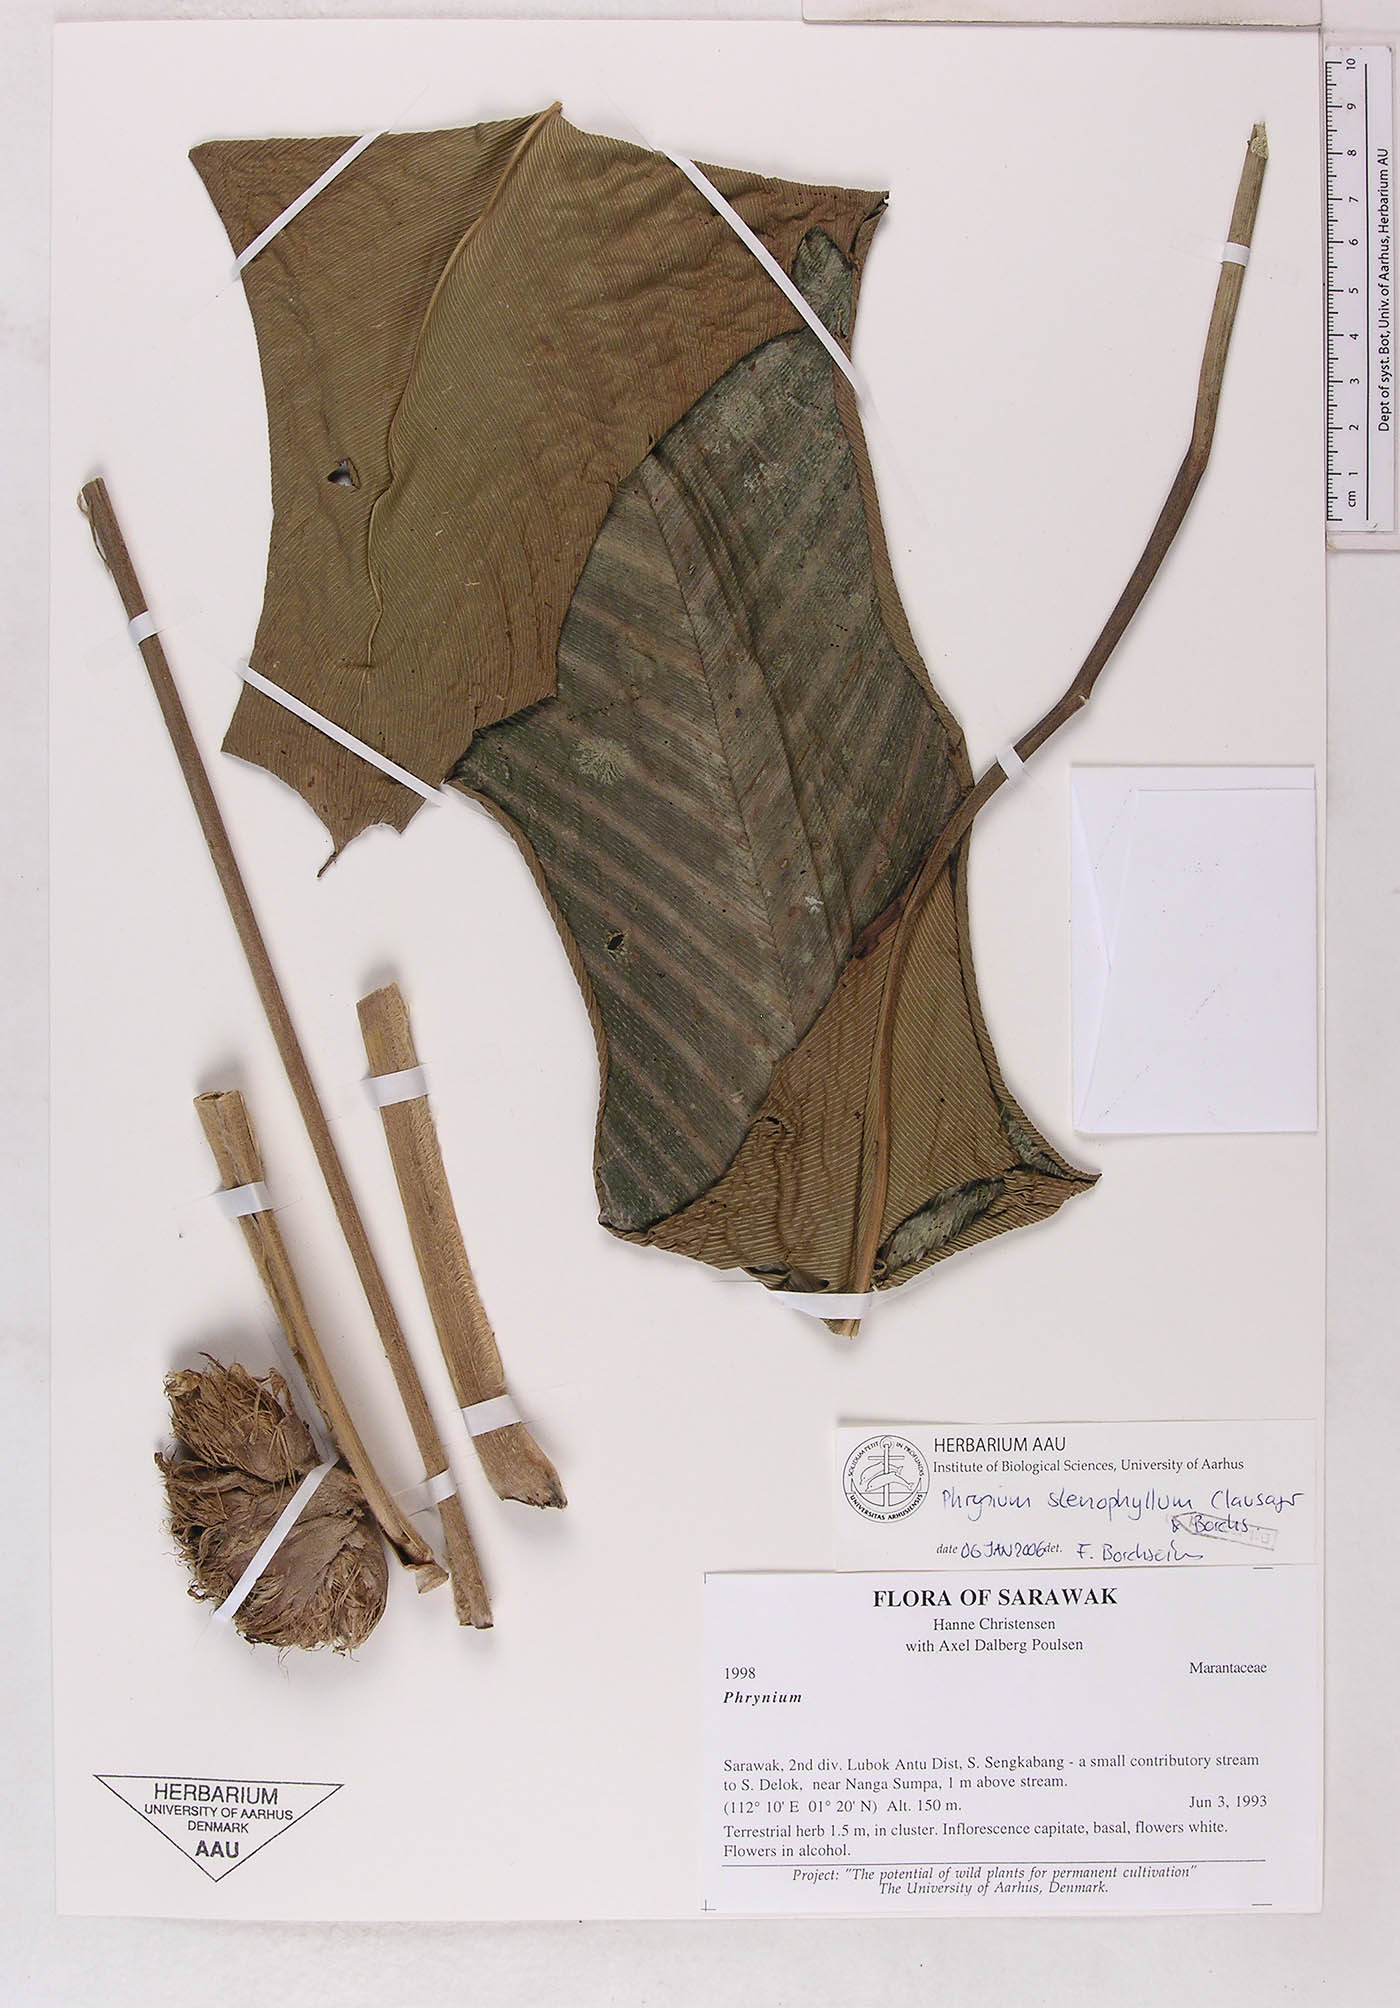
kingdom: Plantae
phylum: Tracheophyta
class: Liliopsida
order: Zingiberales
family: Marantaceae
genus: Phrynium
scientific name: Phrynium stenophyllum
